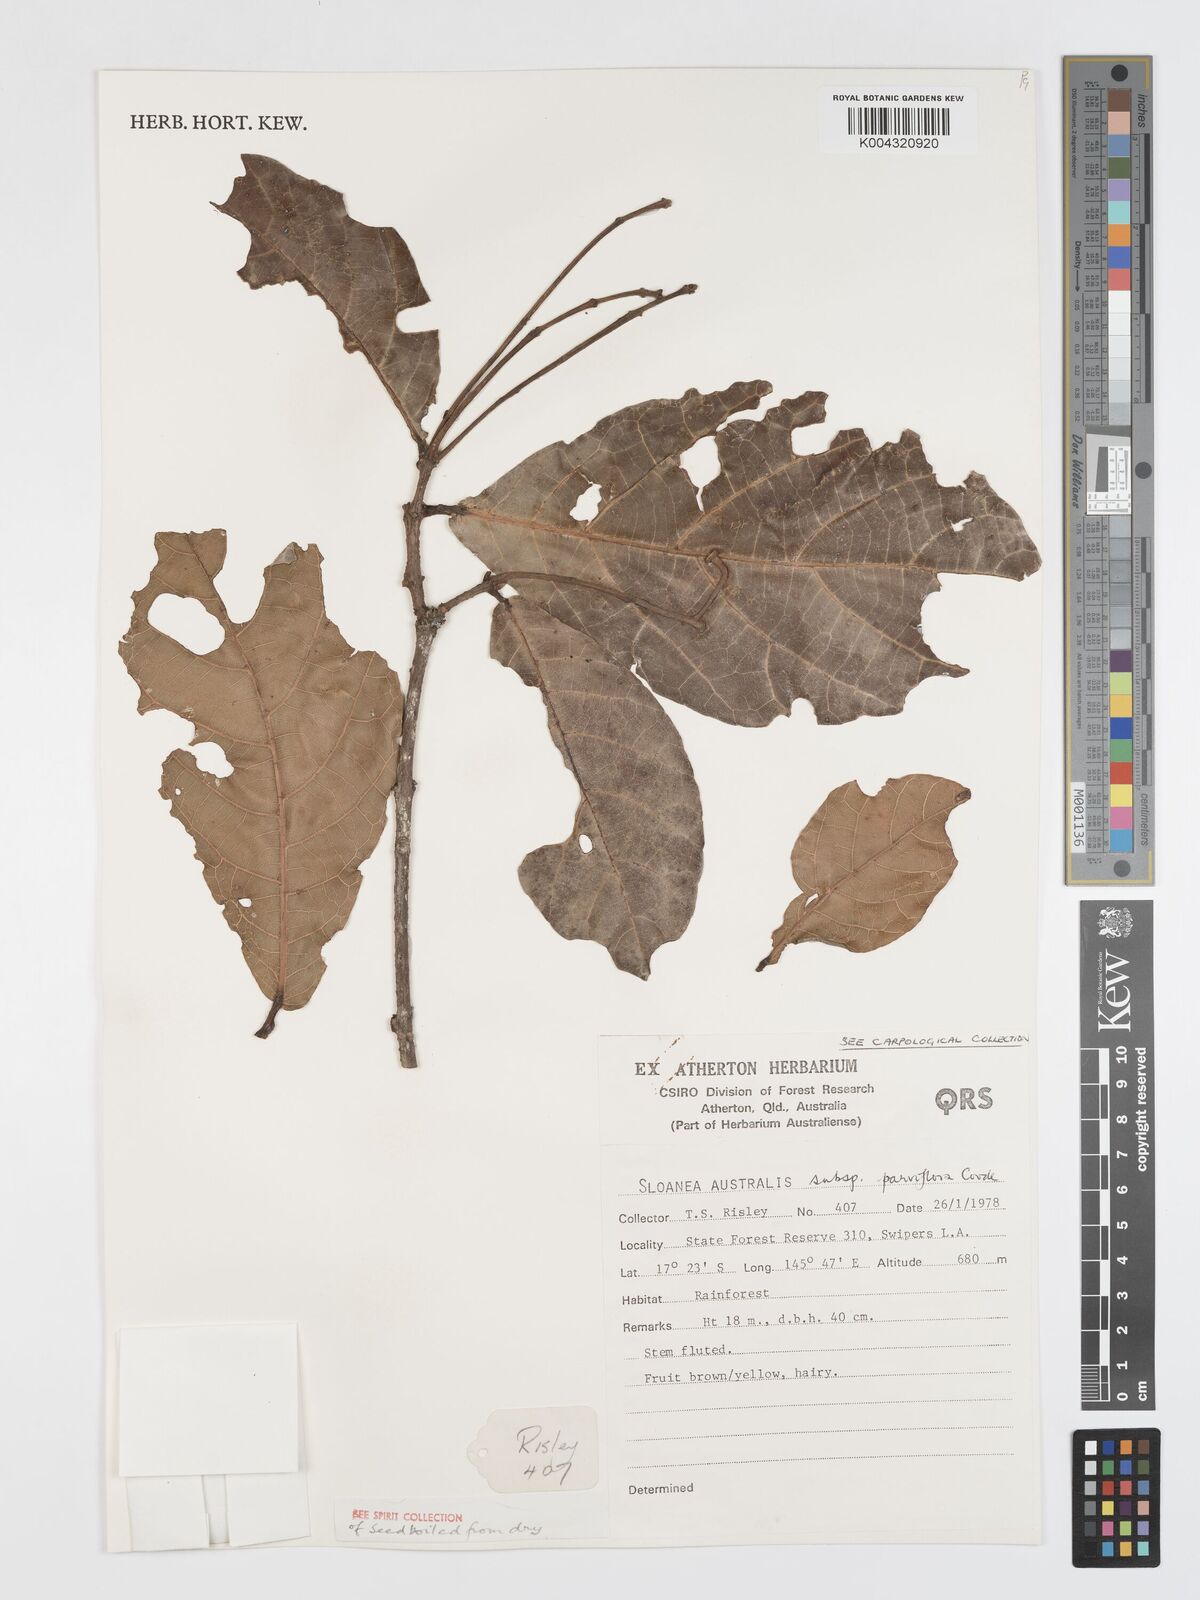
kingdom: Plantae
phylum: Tracheophyta
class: Magnoliopsida
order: Oxalidales
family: Elaeocarpaceae
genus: Sloanea
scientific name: Sloanea australis
